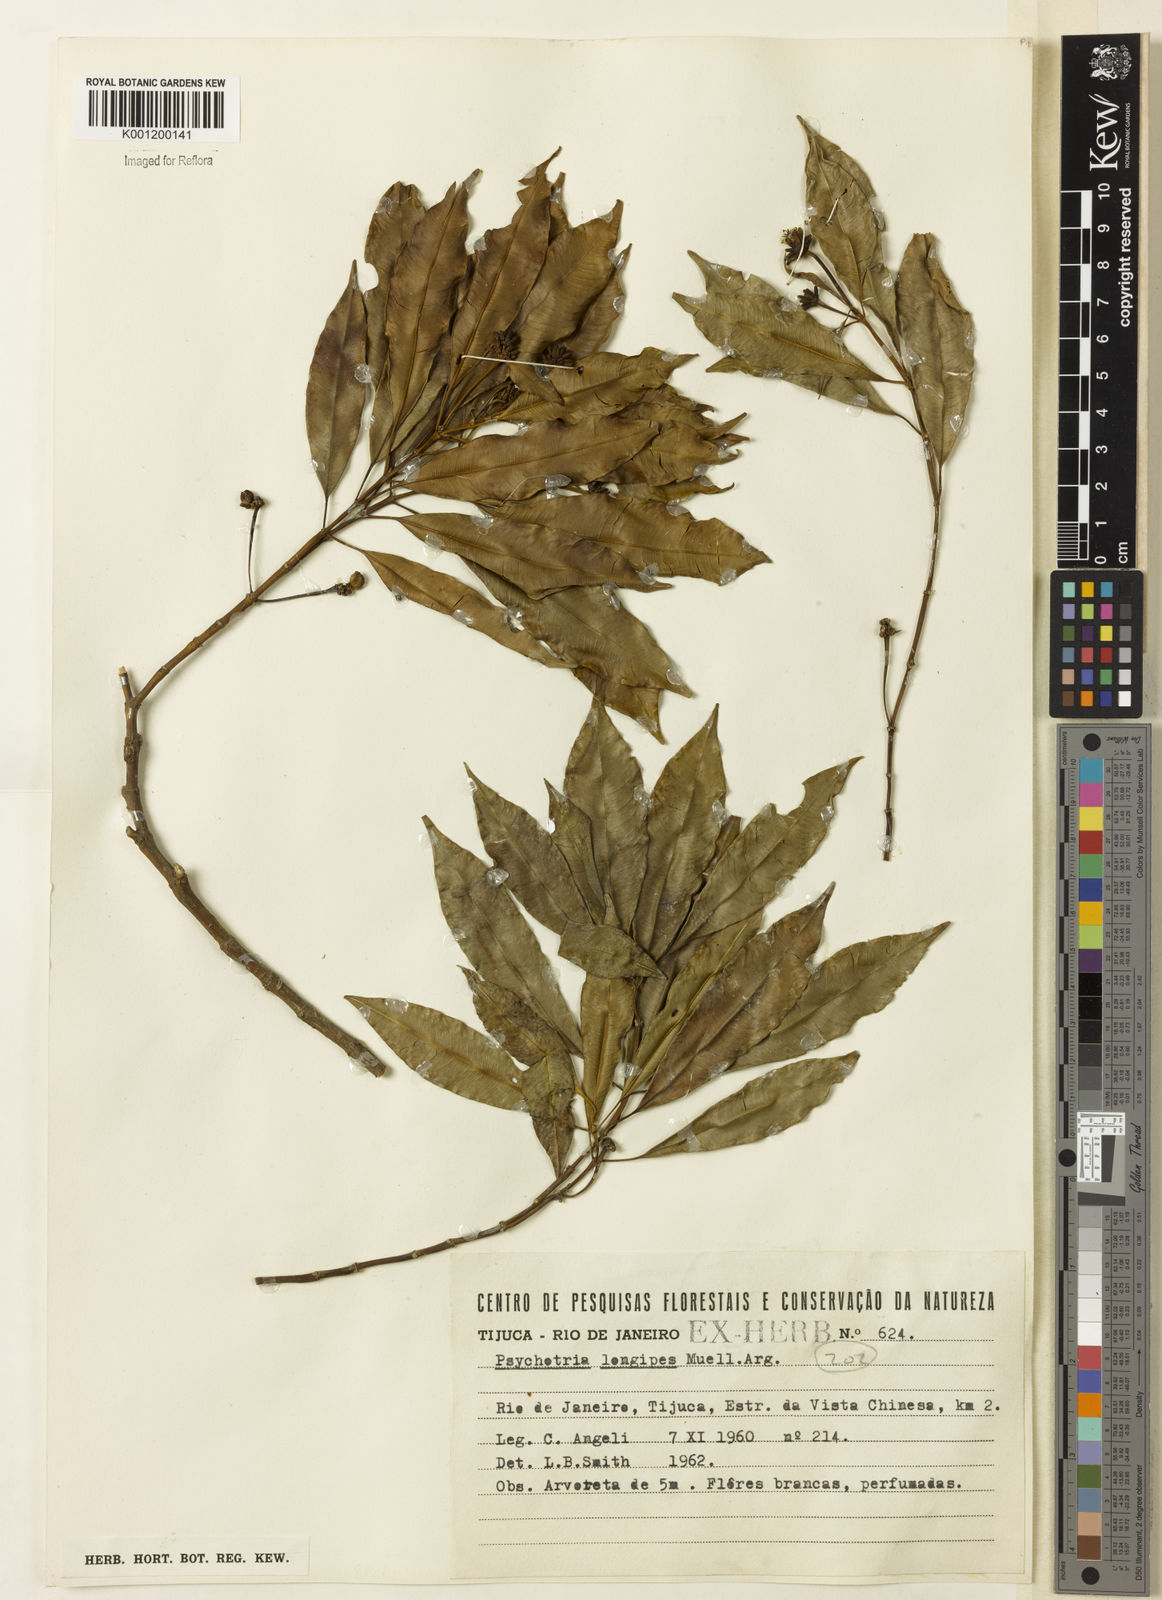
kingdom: Plantae
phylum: Tracheophyta
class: Magnoliopsida
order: Gentianales
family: Rubiaceae
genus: Palicourea
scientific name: Palicourea sessilis
